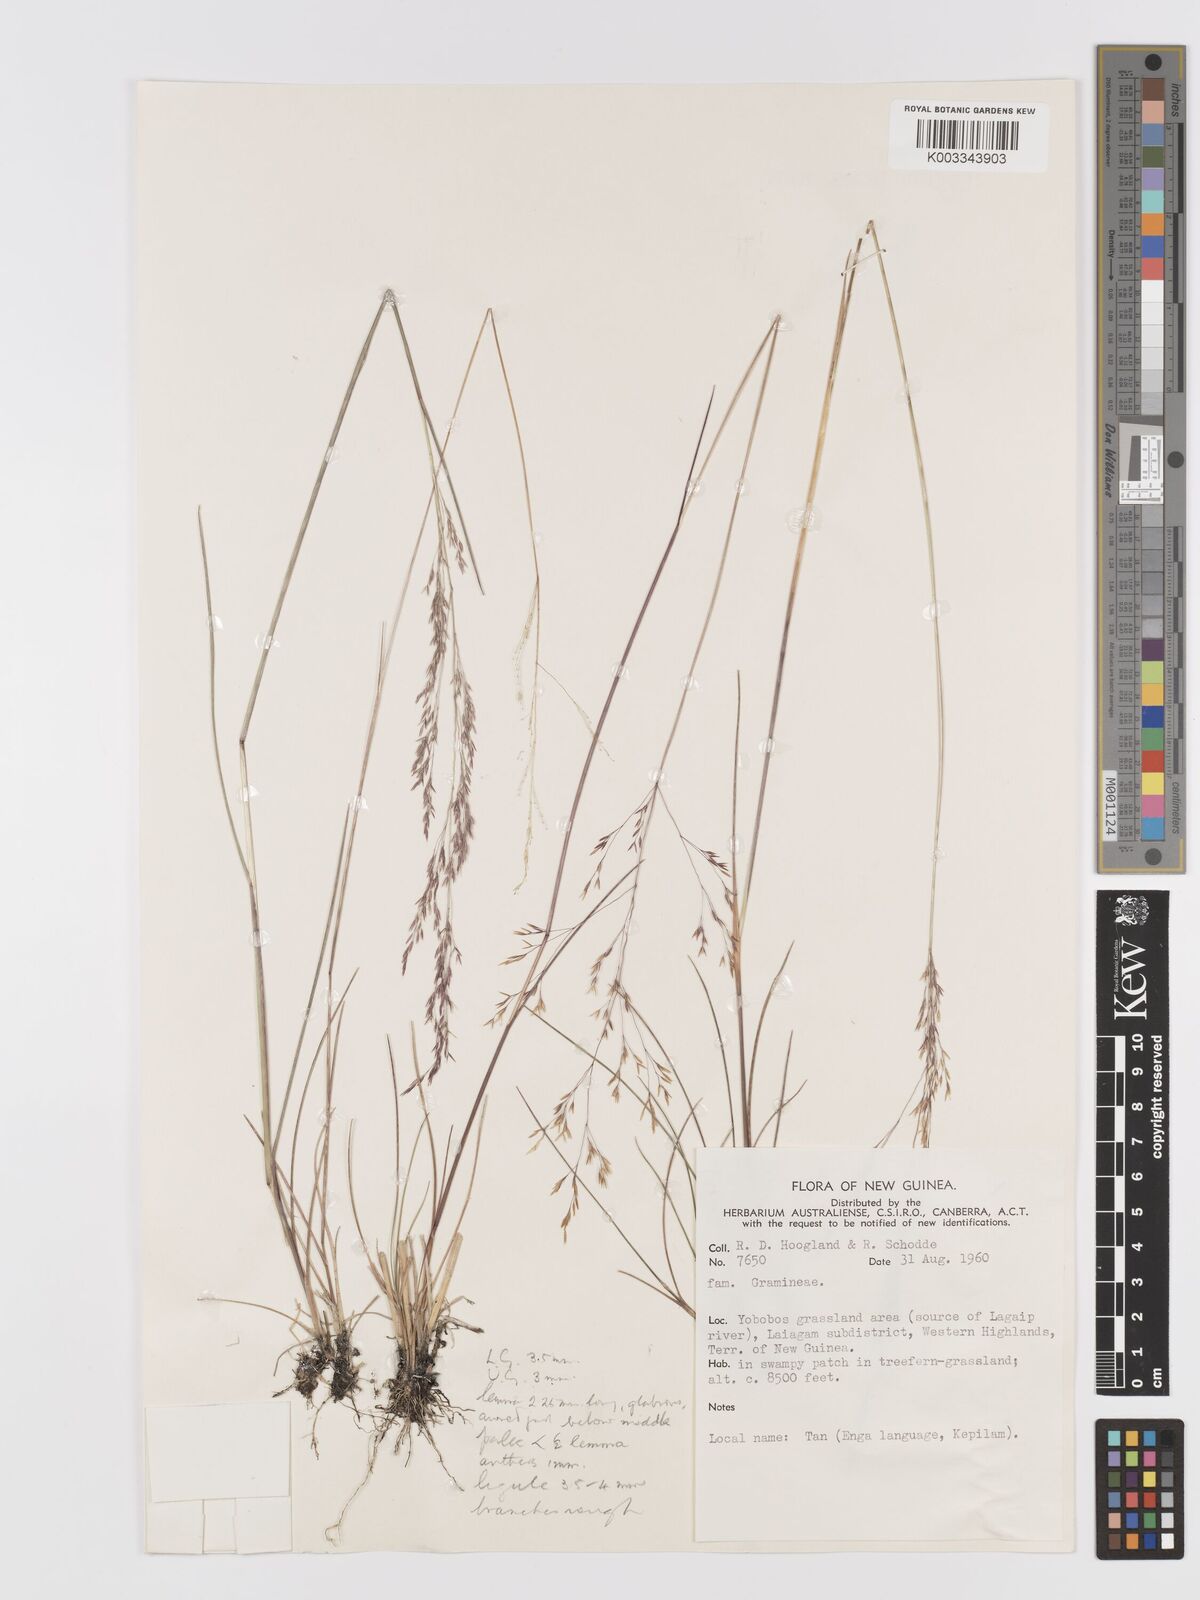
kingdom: Plantae
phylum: Tracheophyta
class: Liliopsida
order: Poales
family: Poaceae
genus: Agrostis
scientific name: Agrostis infirma
